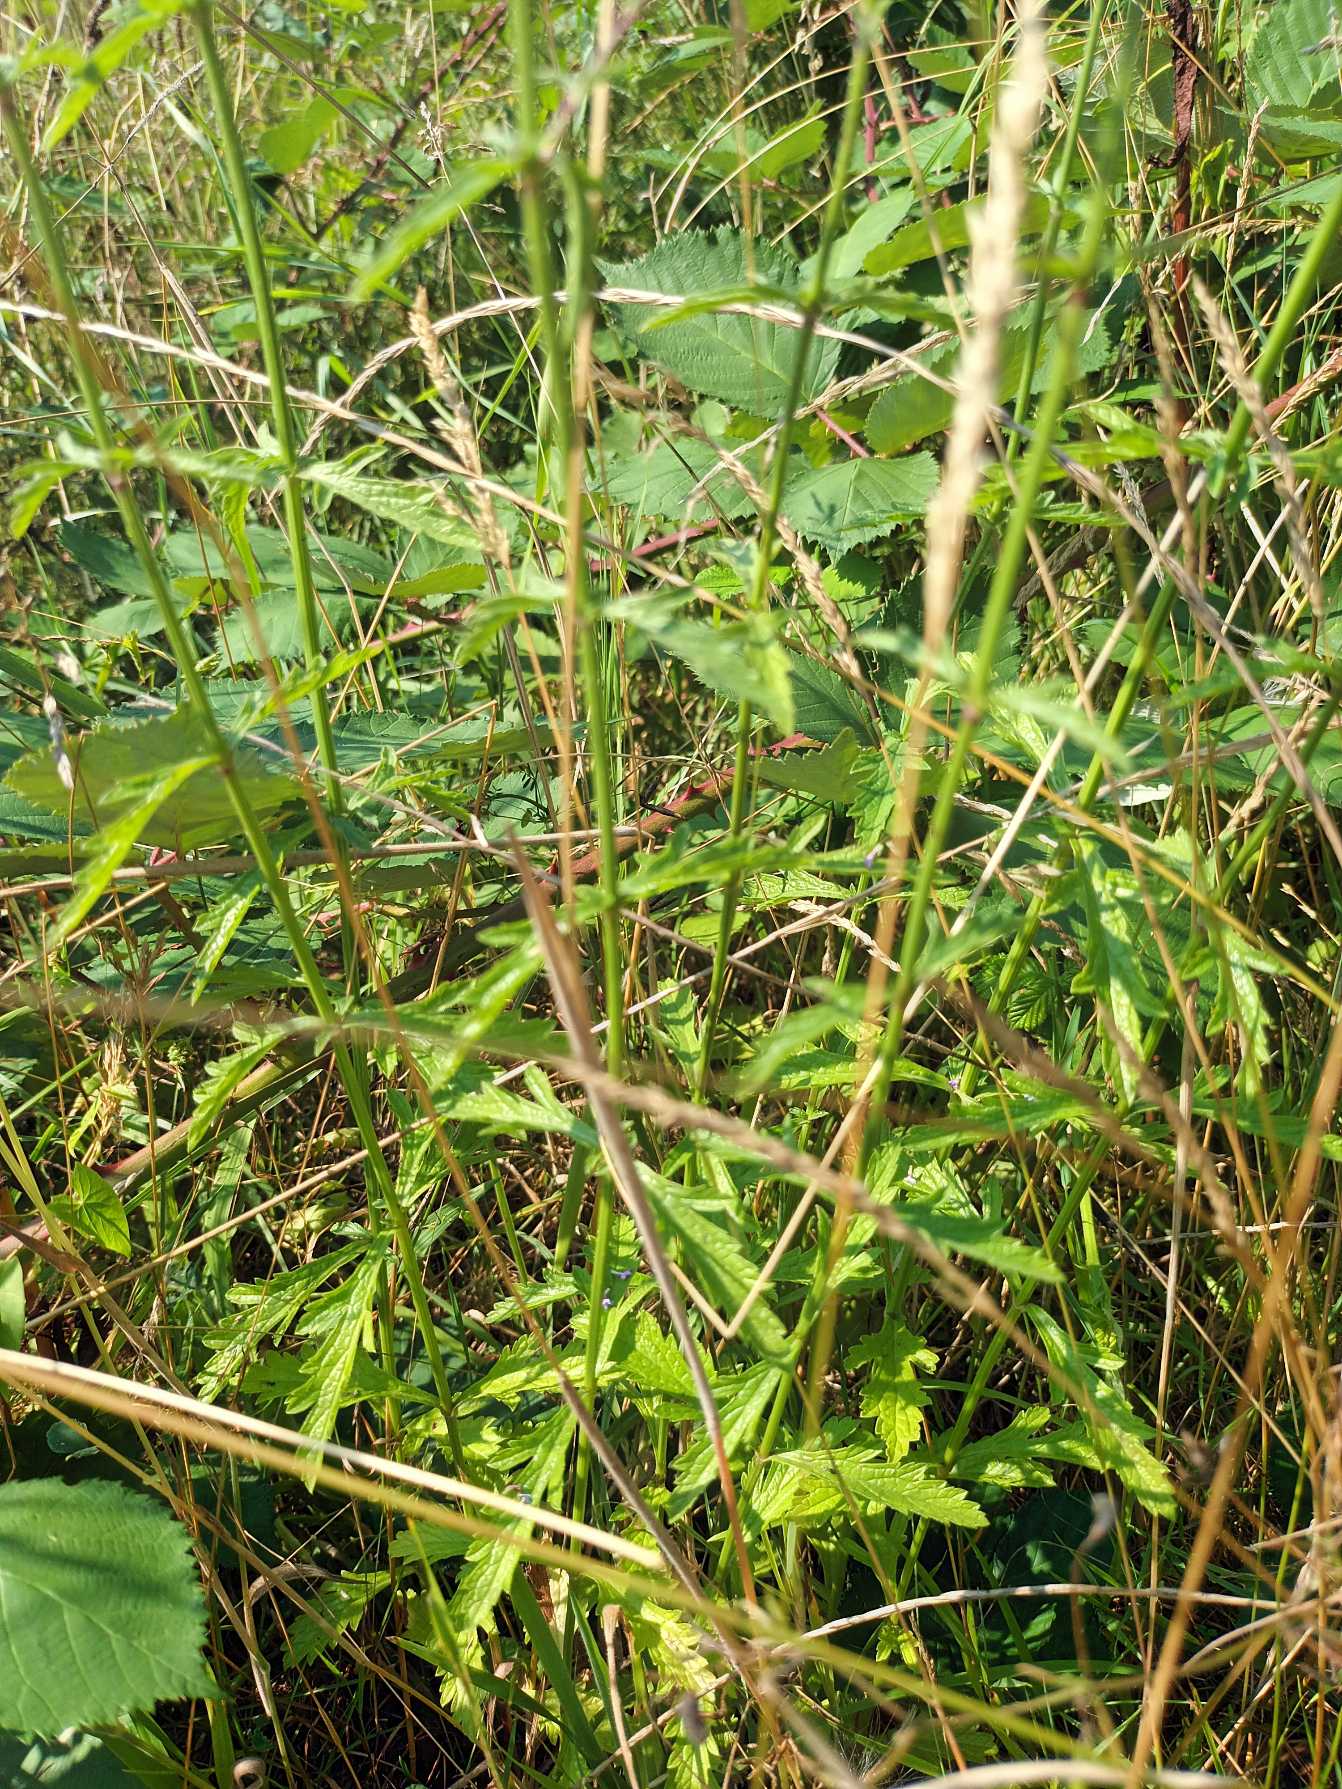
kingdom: Plantae
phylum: Tracheophyta
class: Magnoliopsida
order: Lamiales
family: Verbenaceae
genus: Verbena
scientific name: Verbena officinalis
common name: Læge-jernurt
